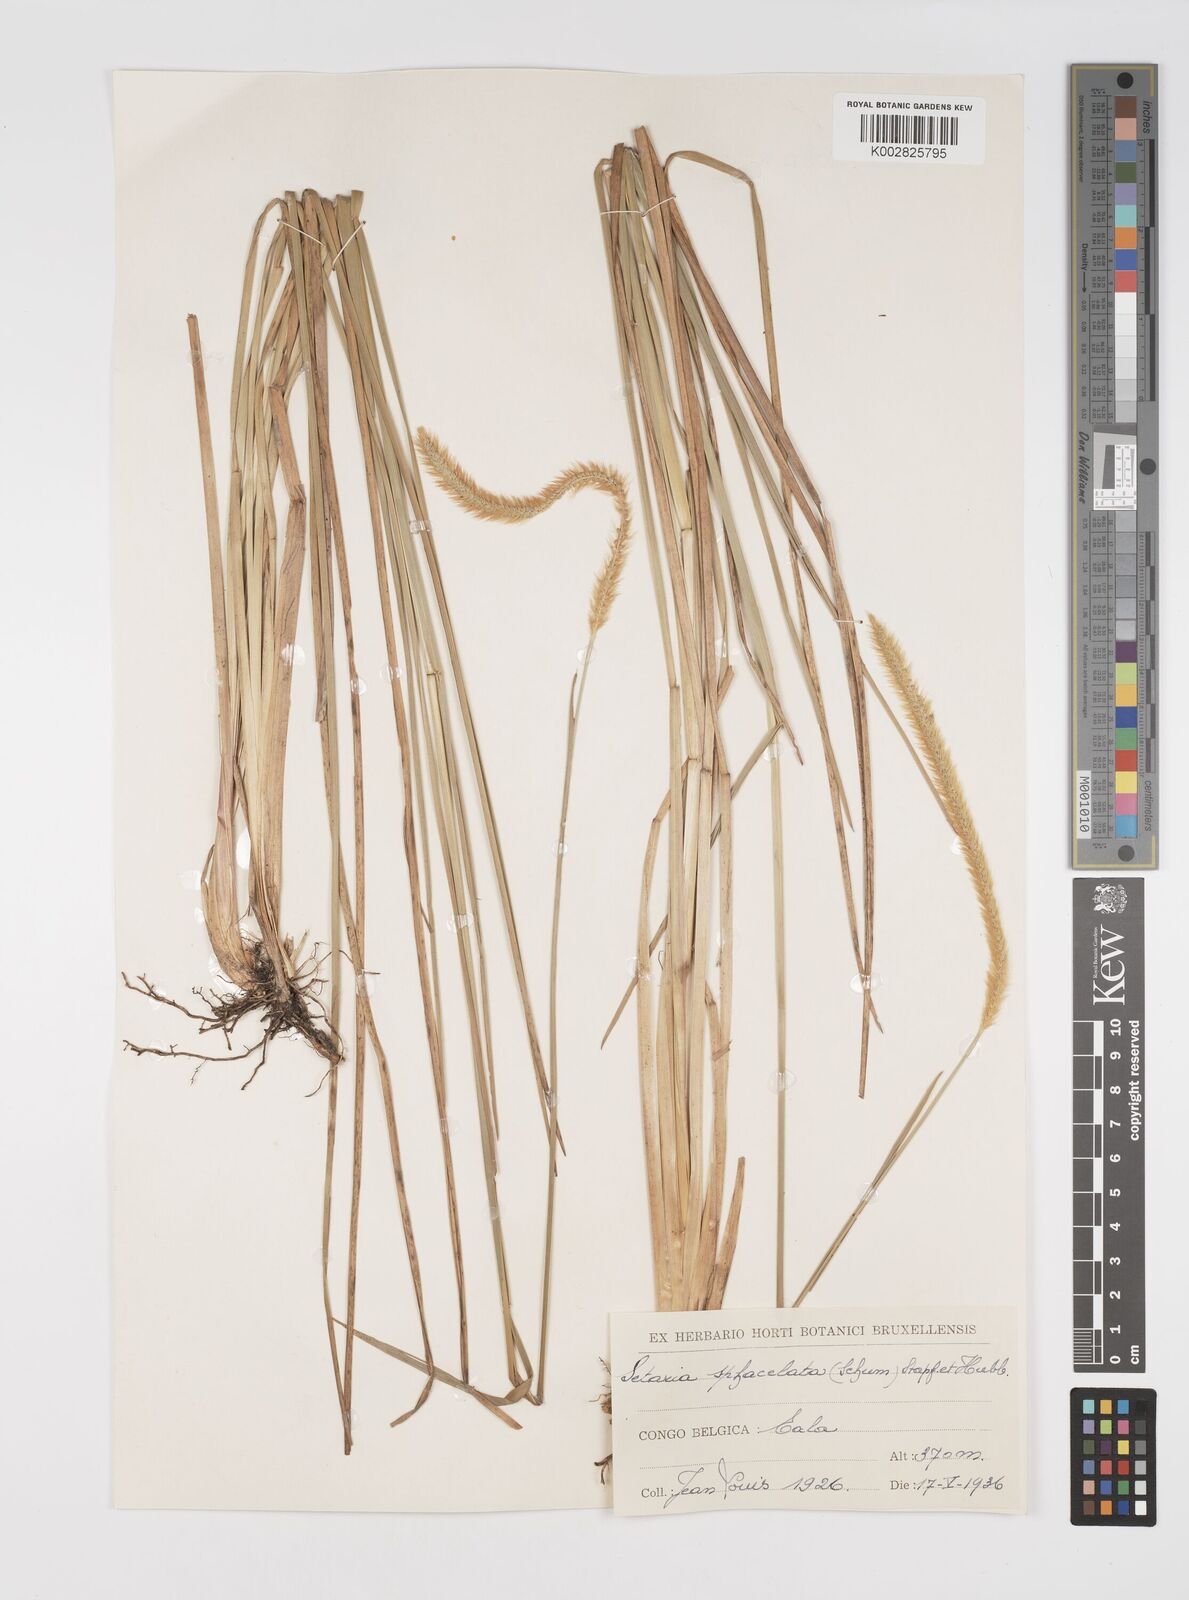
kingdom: Plantae
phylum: Tracheophyta
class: Liliopsida
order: Poales
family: Poaceae
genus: Setaria
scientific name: Setaria sphacelata
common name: African bristlegrass
